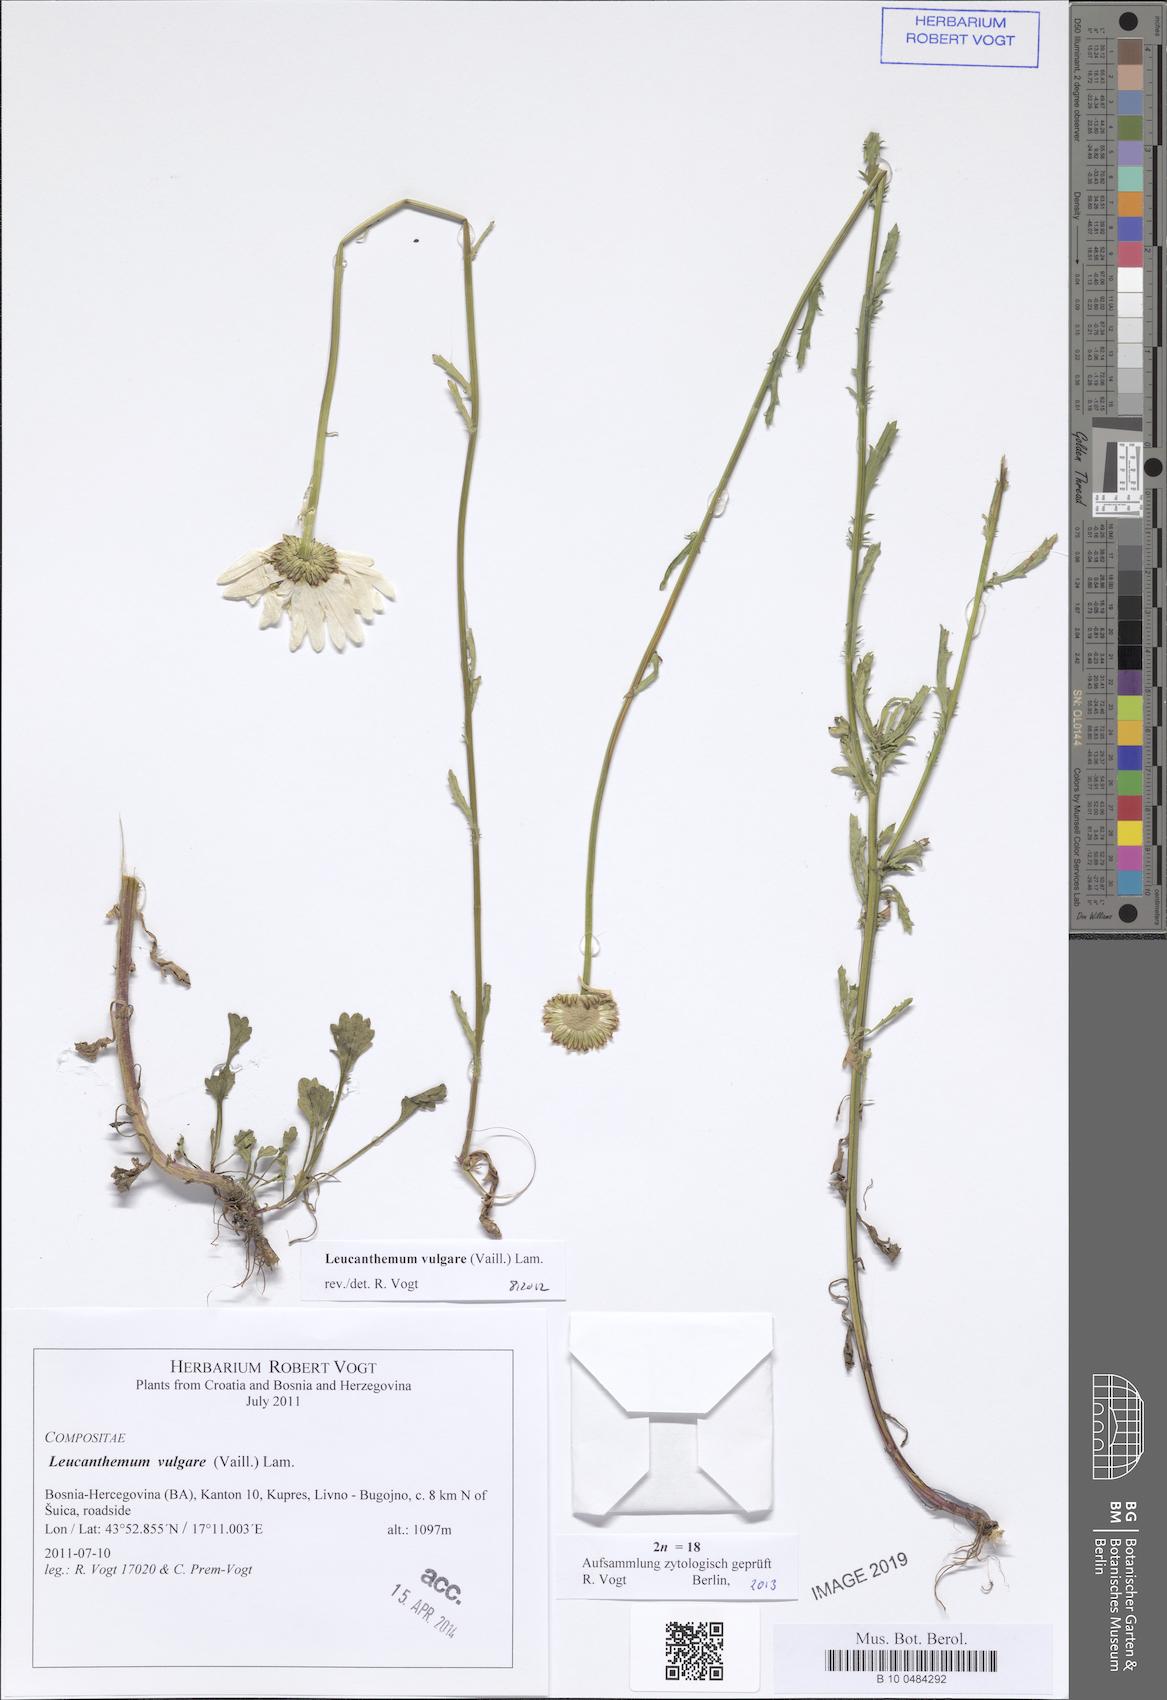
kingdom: Plantae
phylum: Tracheophyta
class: Magnoliopsida
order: Asterales
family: Asteraceae
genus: Leucanthemum
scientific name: Leucanthemum vulgare
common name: Oxeye daisy
